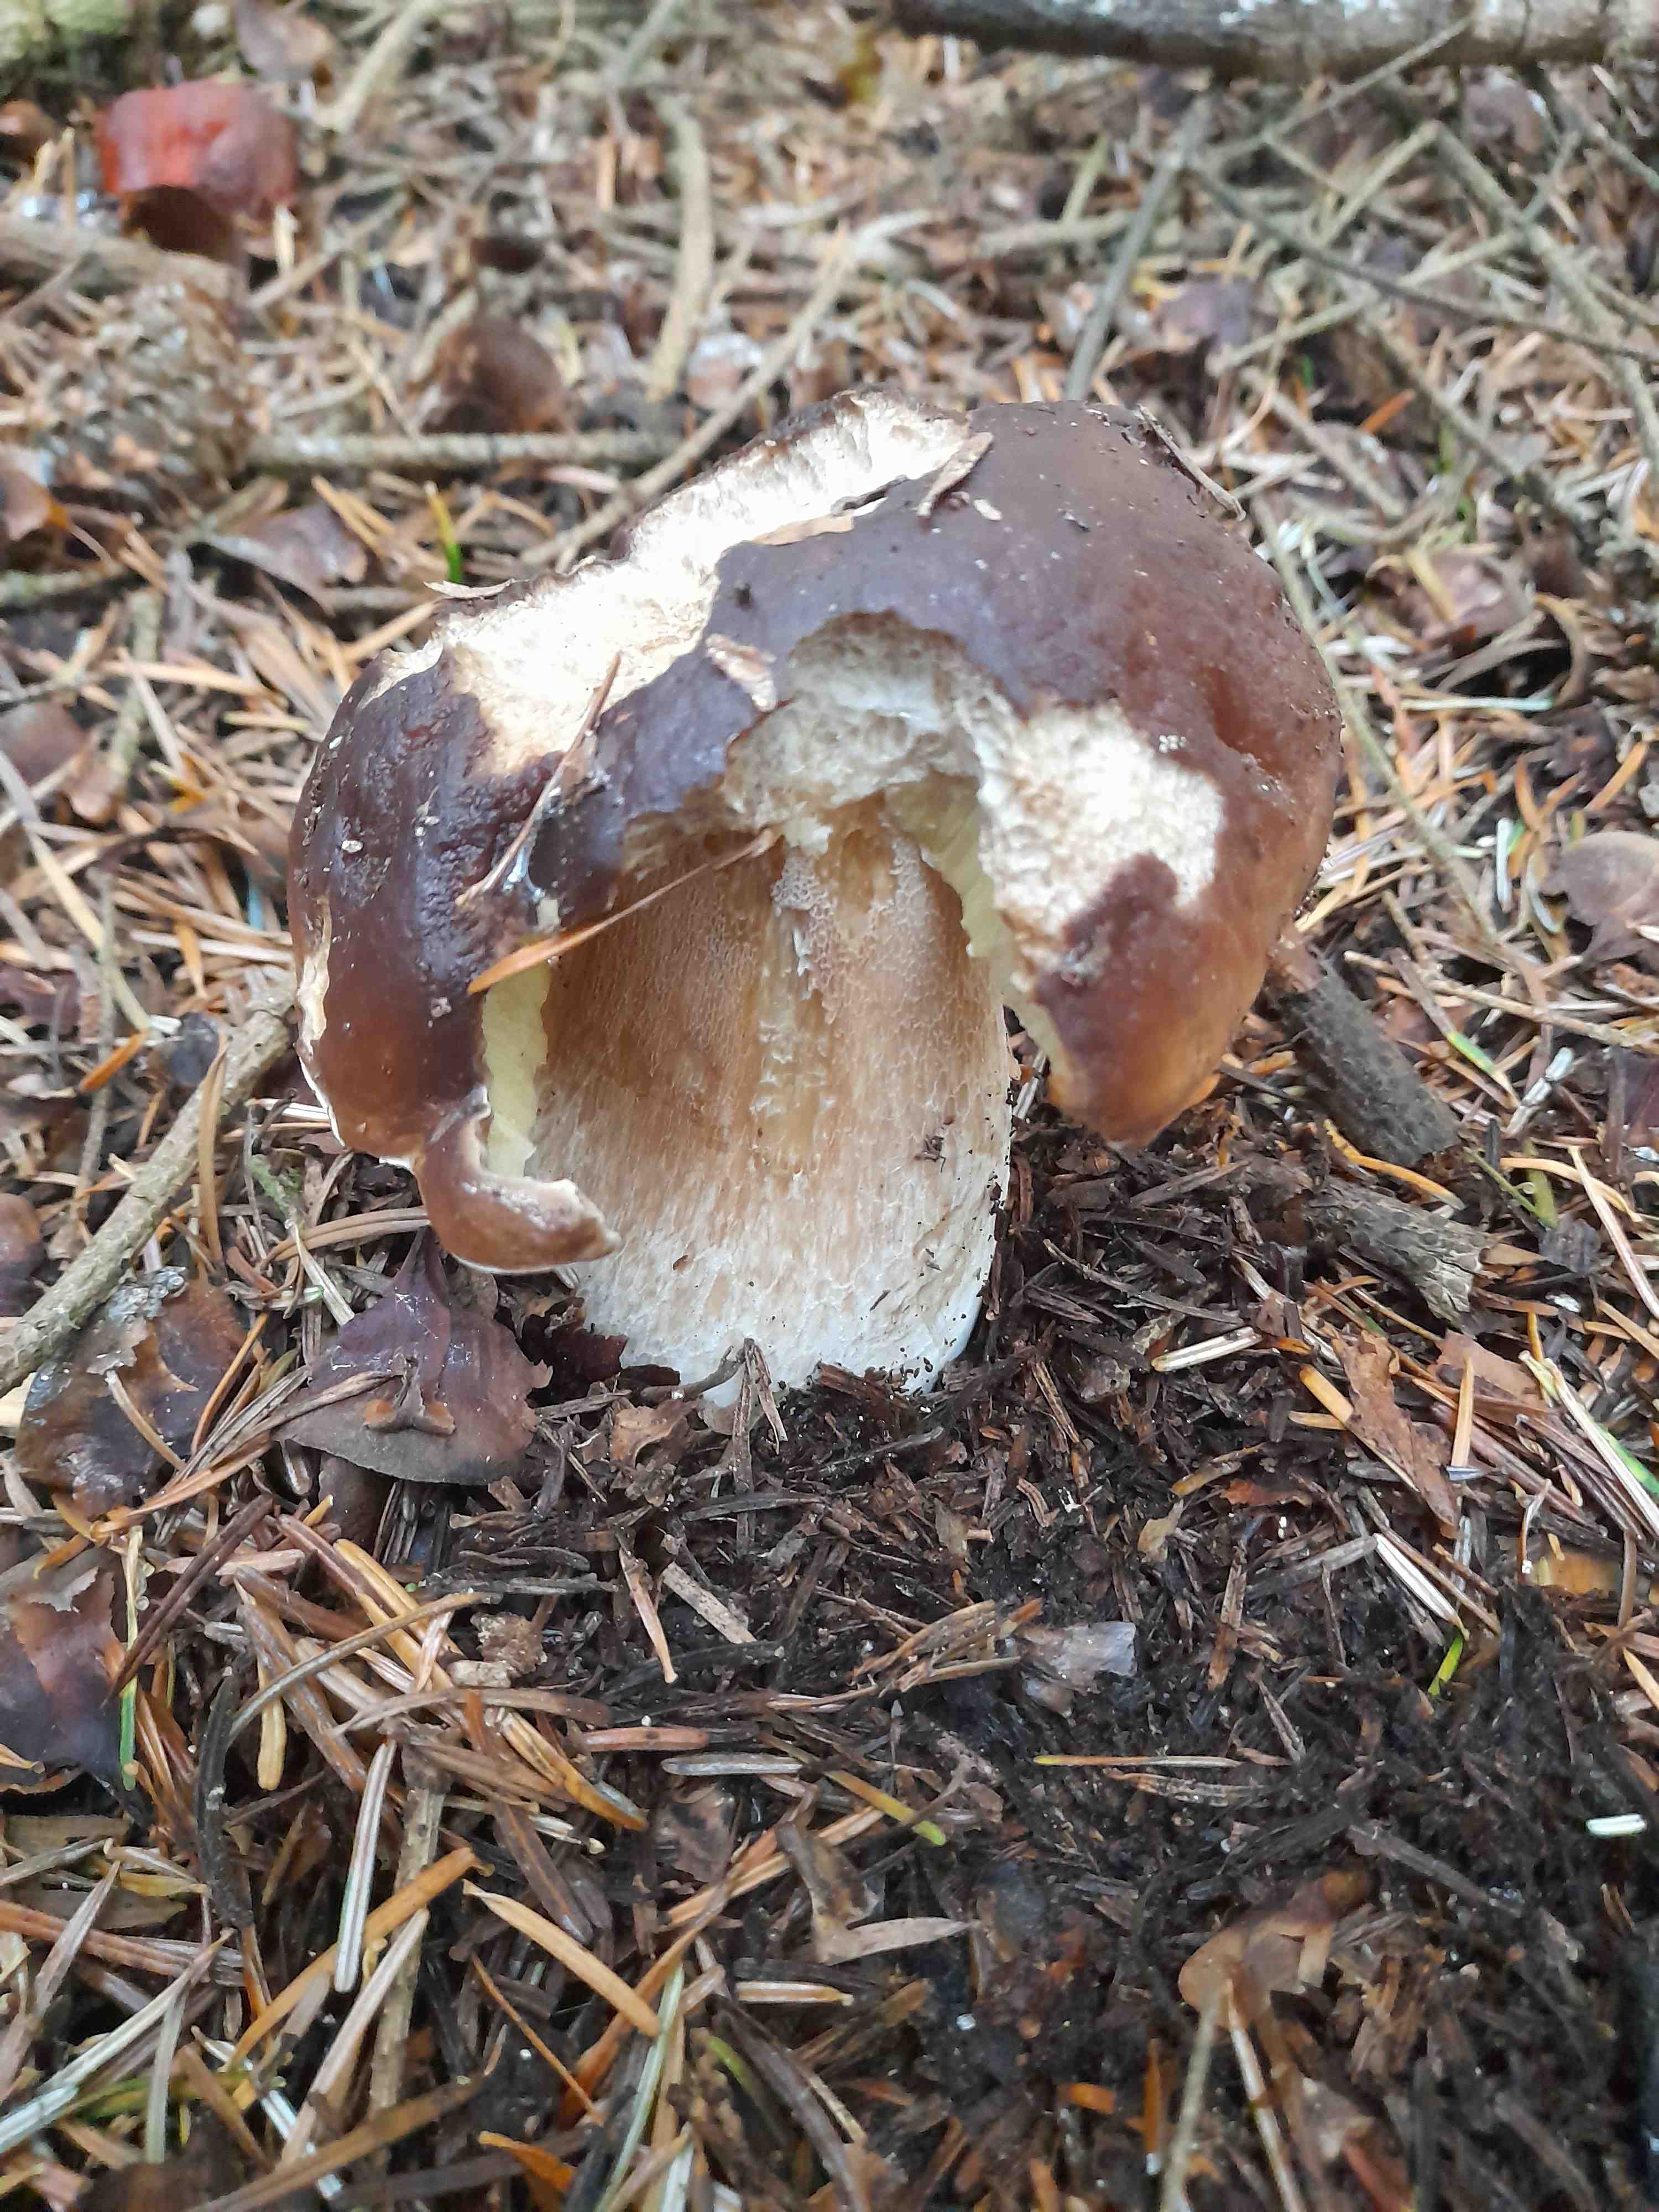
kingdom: Fungi
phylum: Basidiomycota
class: Agaricomycetes
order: Boletales
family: Boletaceae
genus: Boletus
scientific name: Boletus edulis
